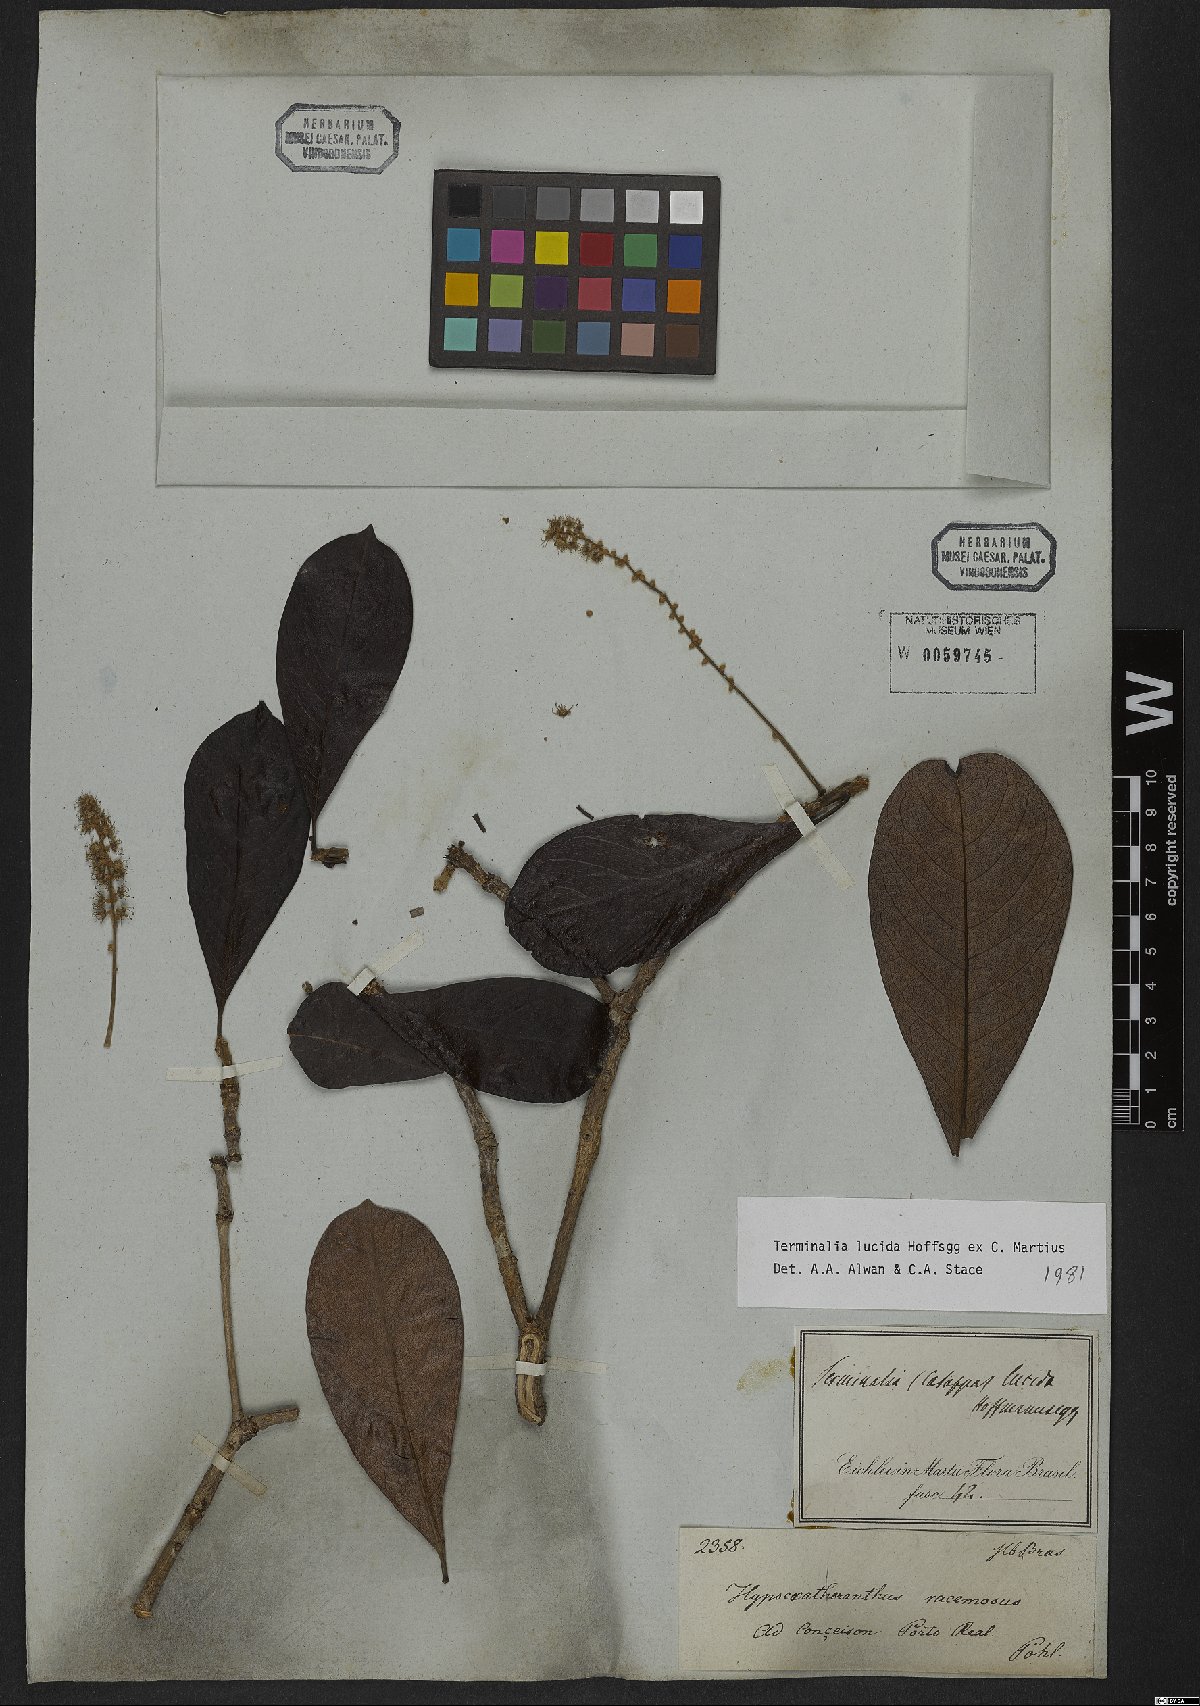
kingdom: Plantae
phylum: Tracheophyta
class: Magnoliopsida
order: Myrtales
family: Combretaceae
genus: Terminalia
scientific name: Terminalia lucida
